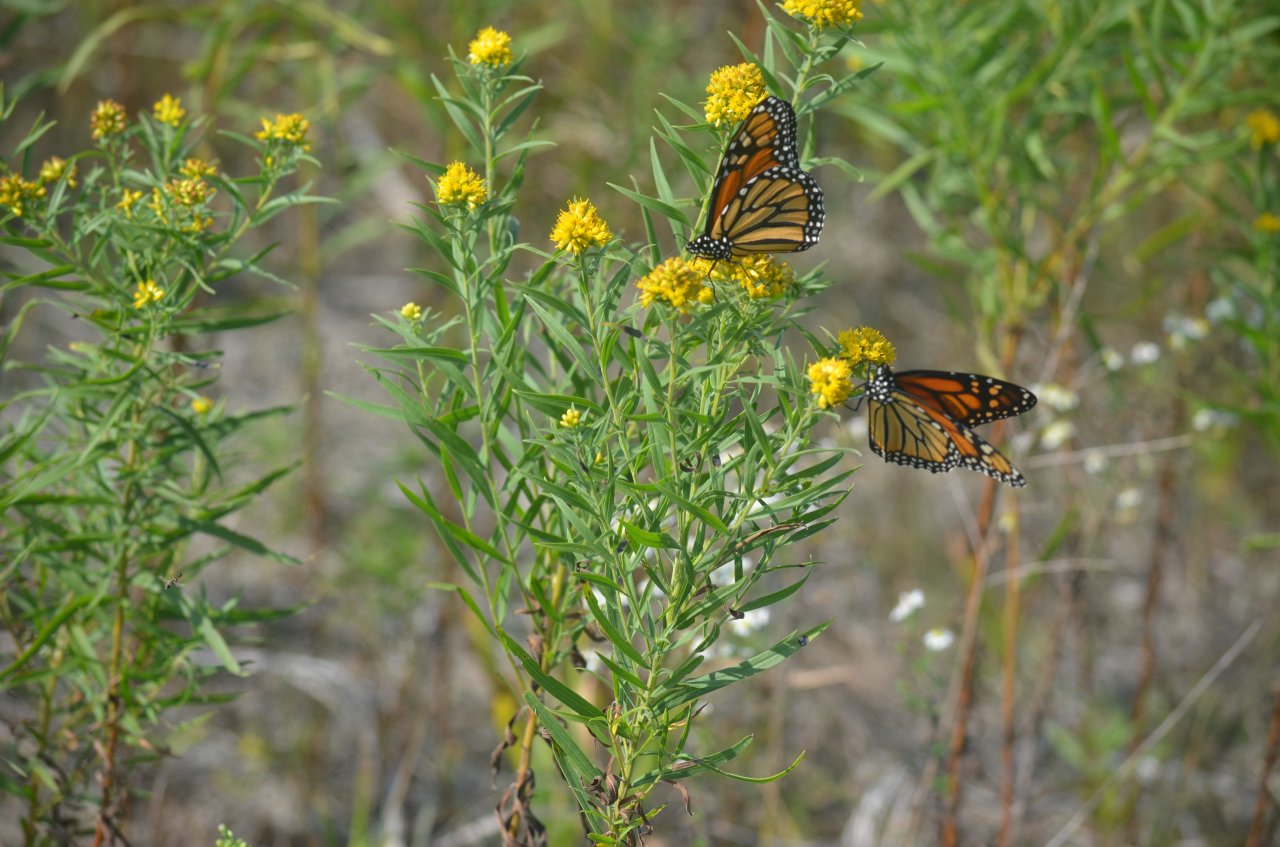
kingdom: Animalia
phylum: Arthropoda
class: Insecta
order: Lepidoptera
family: Nymphalidae
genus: Danaus
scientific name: Danaus plexippus
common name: Monarch
